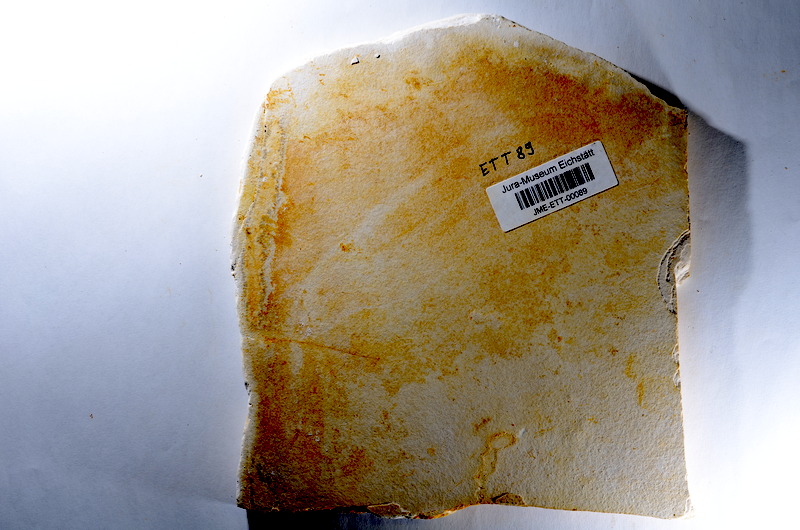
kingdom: Animalia
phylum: Chordata
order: Salmoniformes
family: Orthogonikleithridae
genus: Orthogonikleithrus
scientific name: Orthogonikleithrus hoelli
